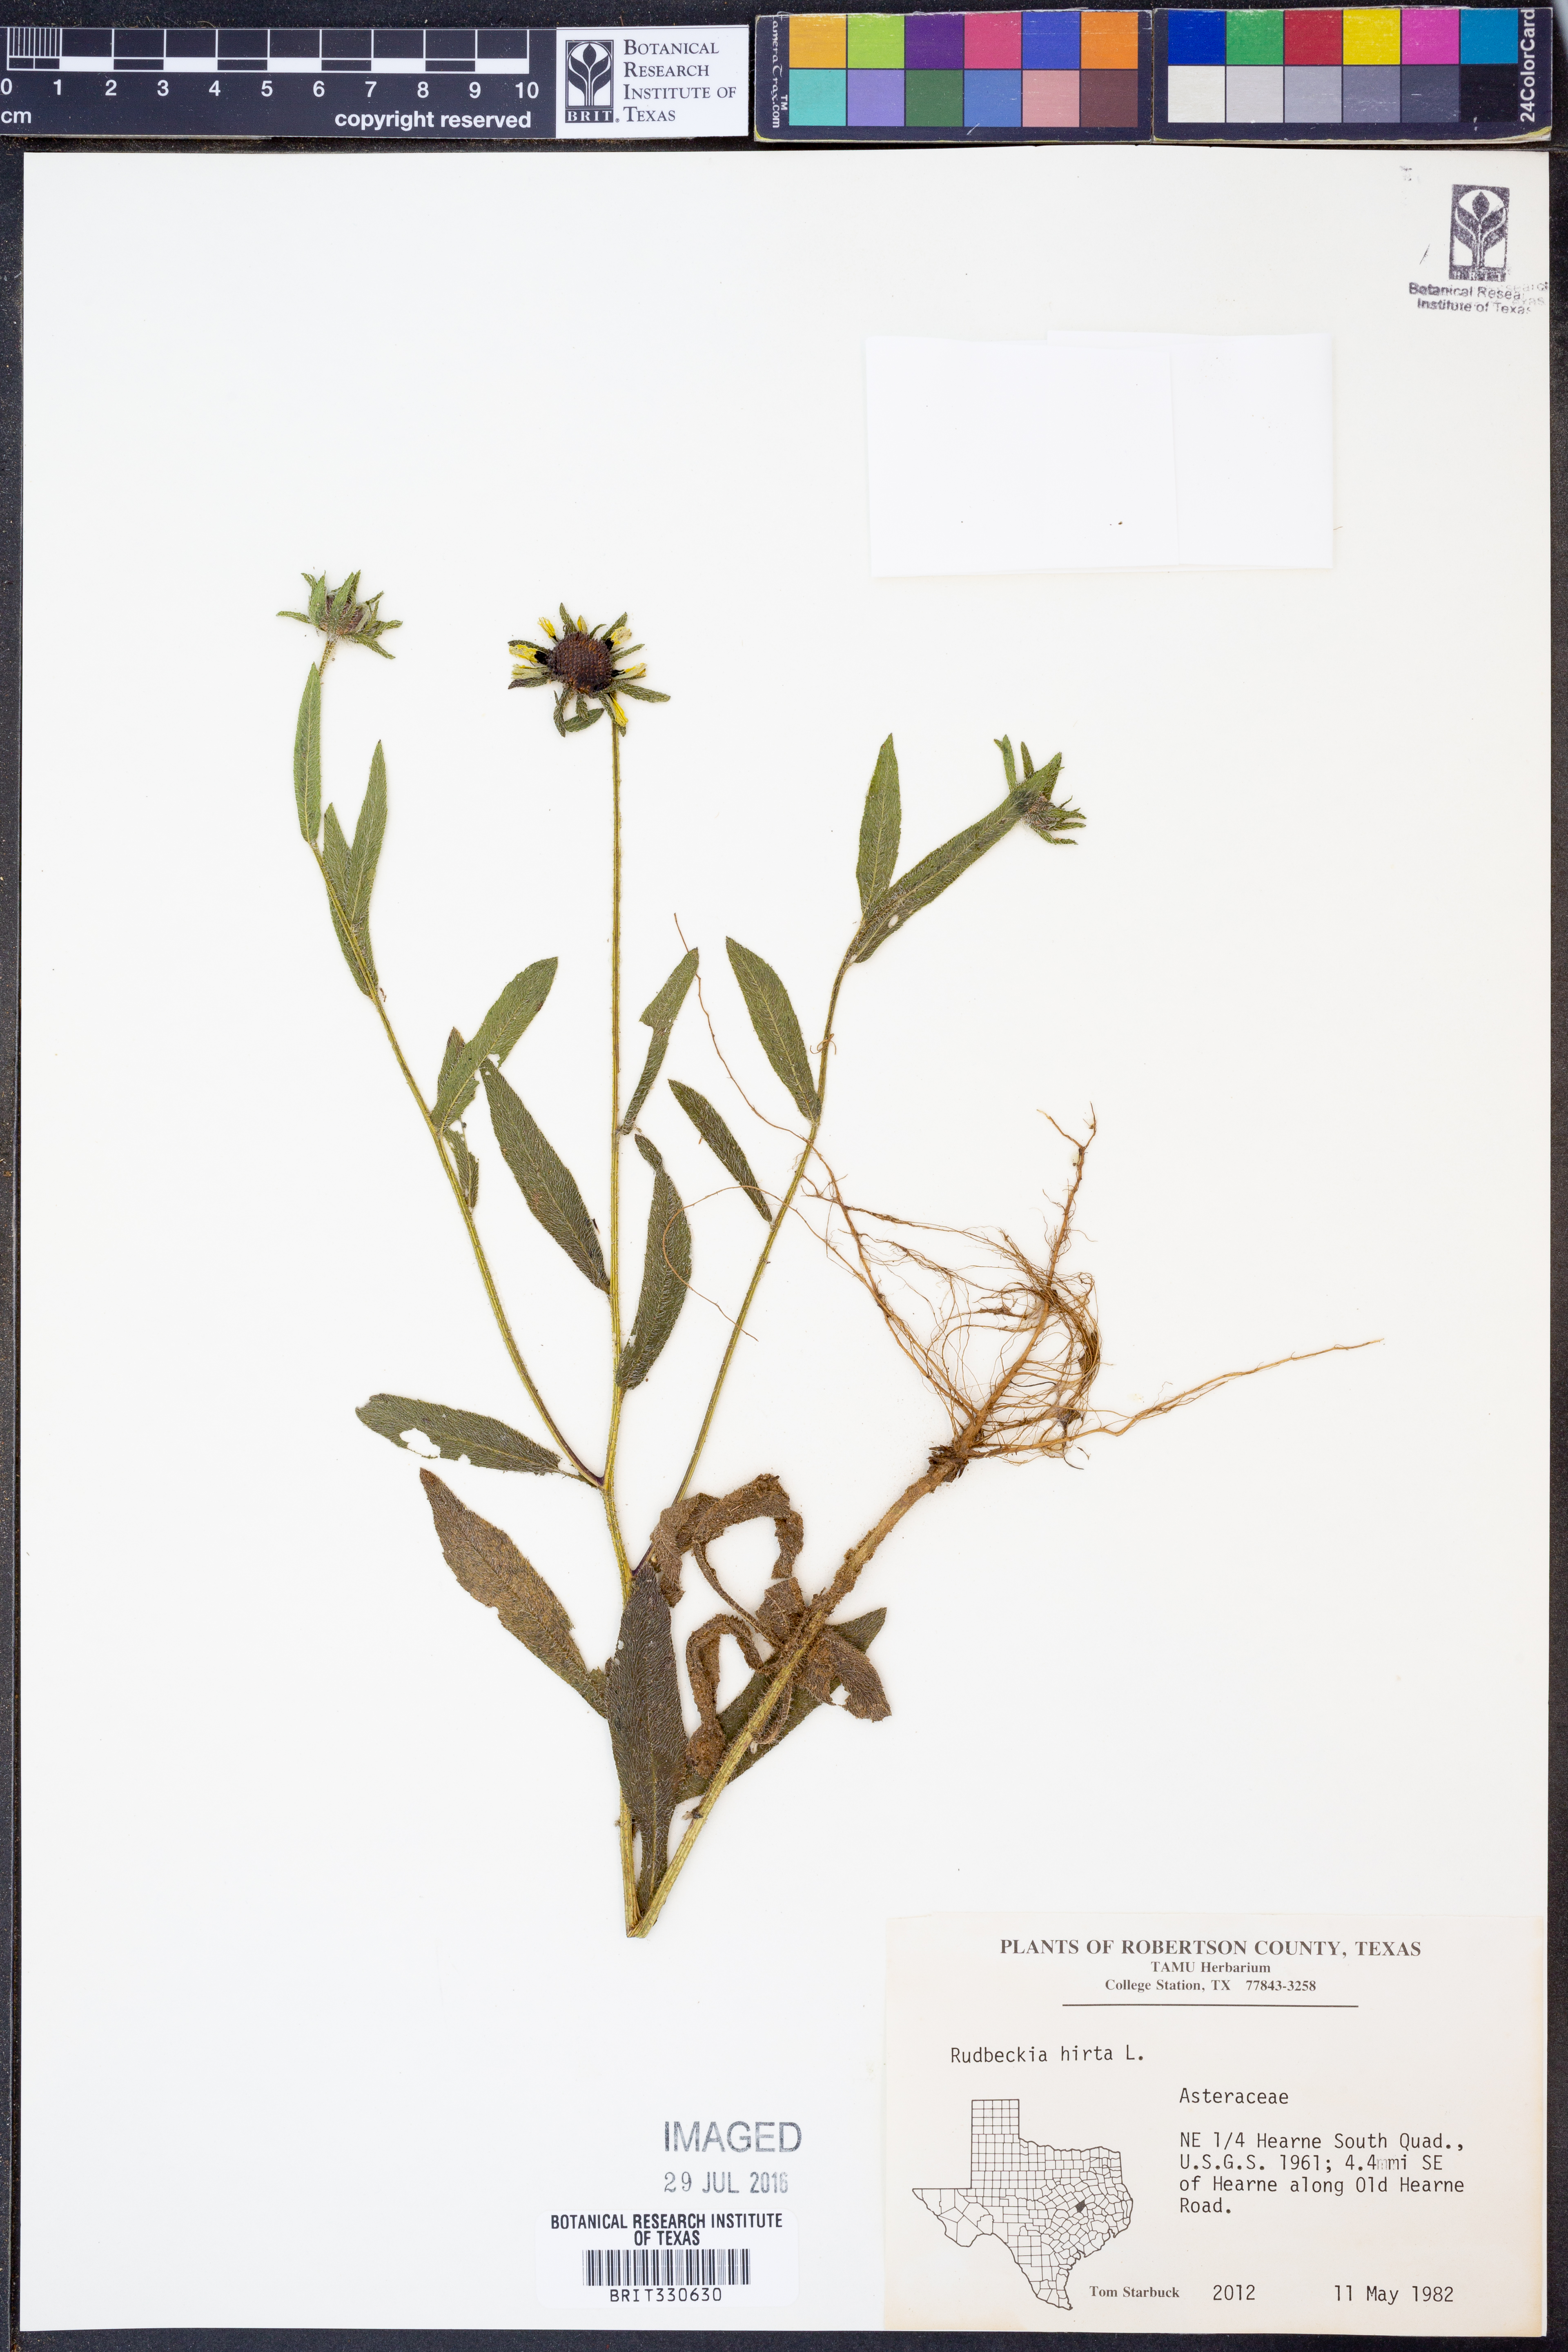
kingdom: Plantae
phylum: Tracheophyta
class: Magnoliopsida
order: Asterales
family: Asteraceae
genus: Rudbeckia
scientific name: Rudbeckia hirta
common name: Black-eyed-susan
